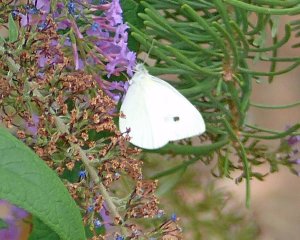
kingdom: Animalia
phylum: Arthropoda
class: Insecta
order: Lepidoptera
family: Pieridae
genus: Pieris
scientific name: Pieris rapae
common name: Cabbage White
